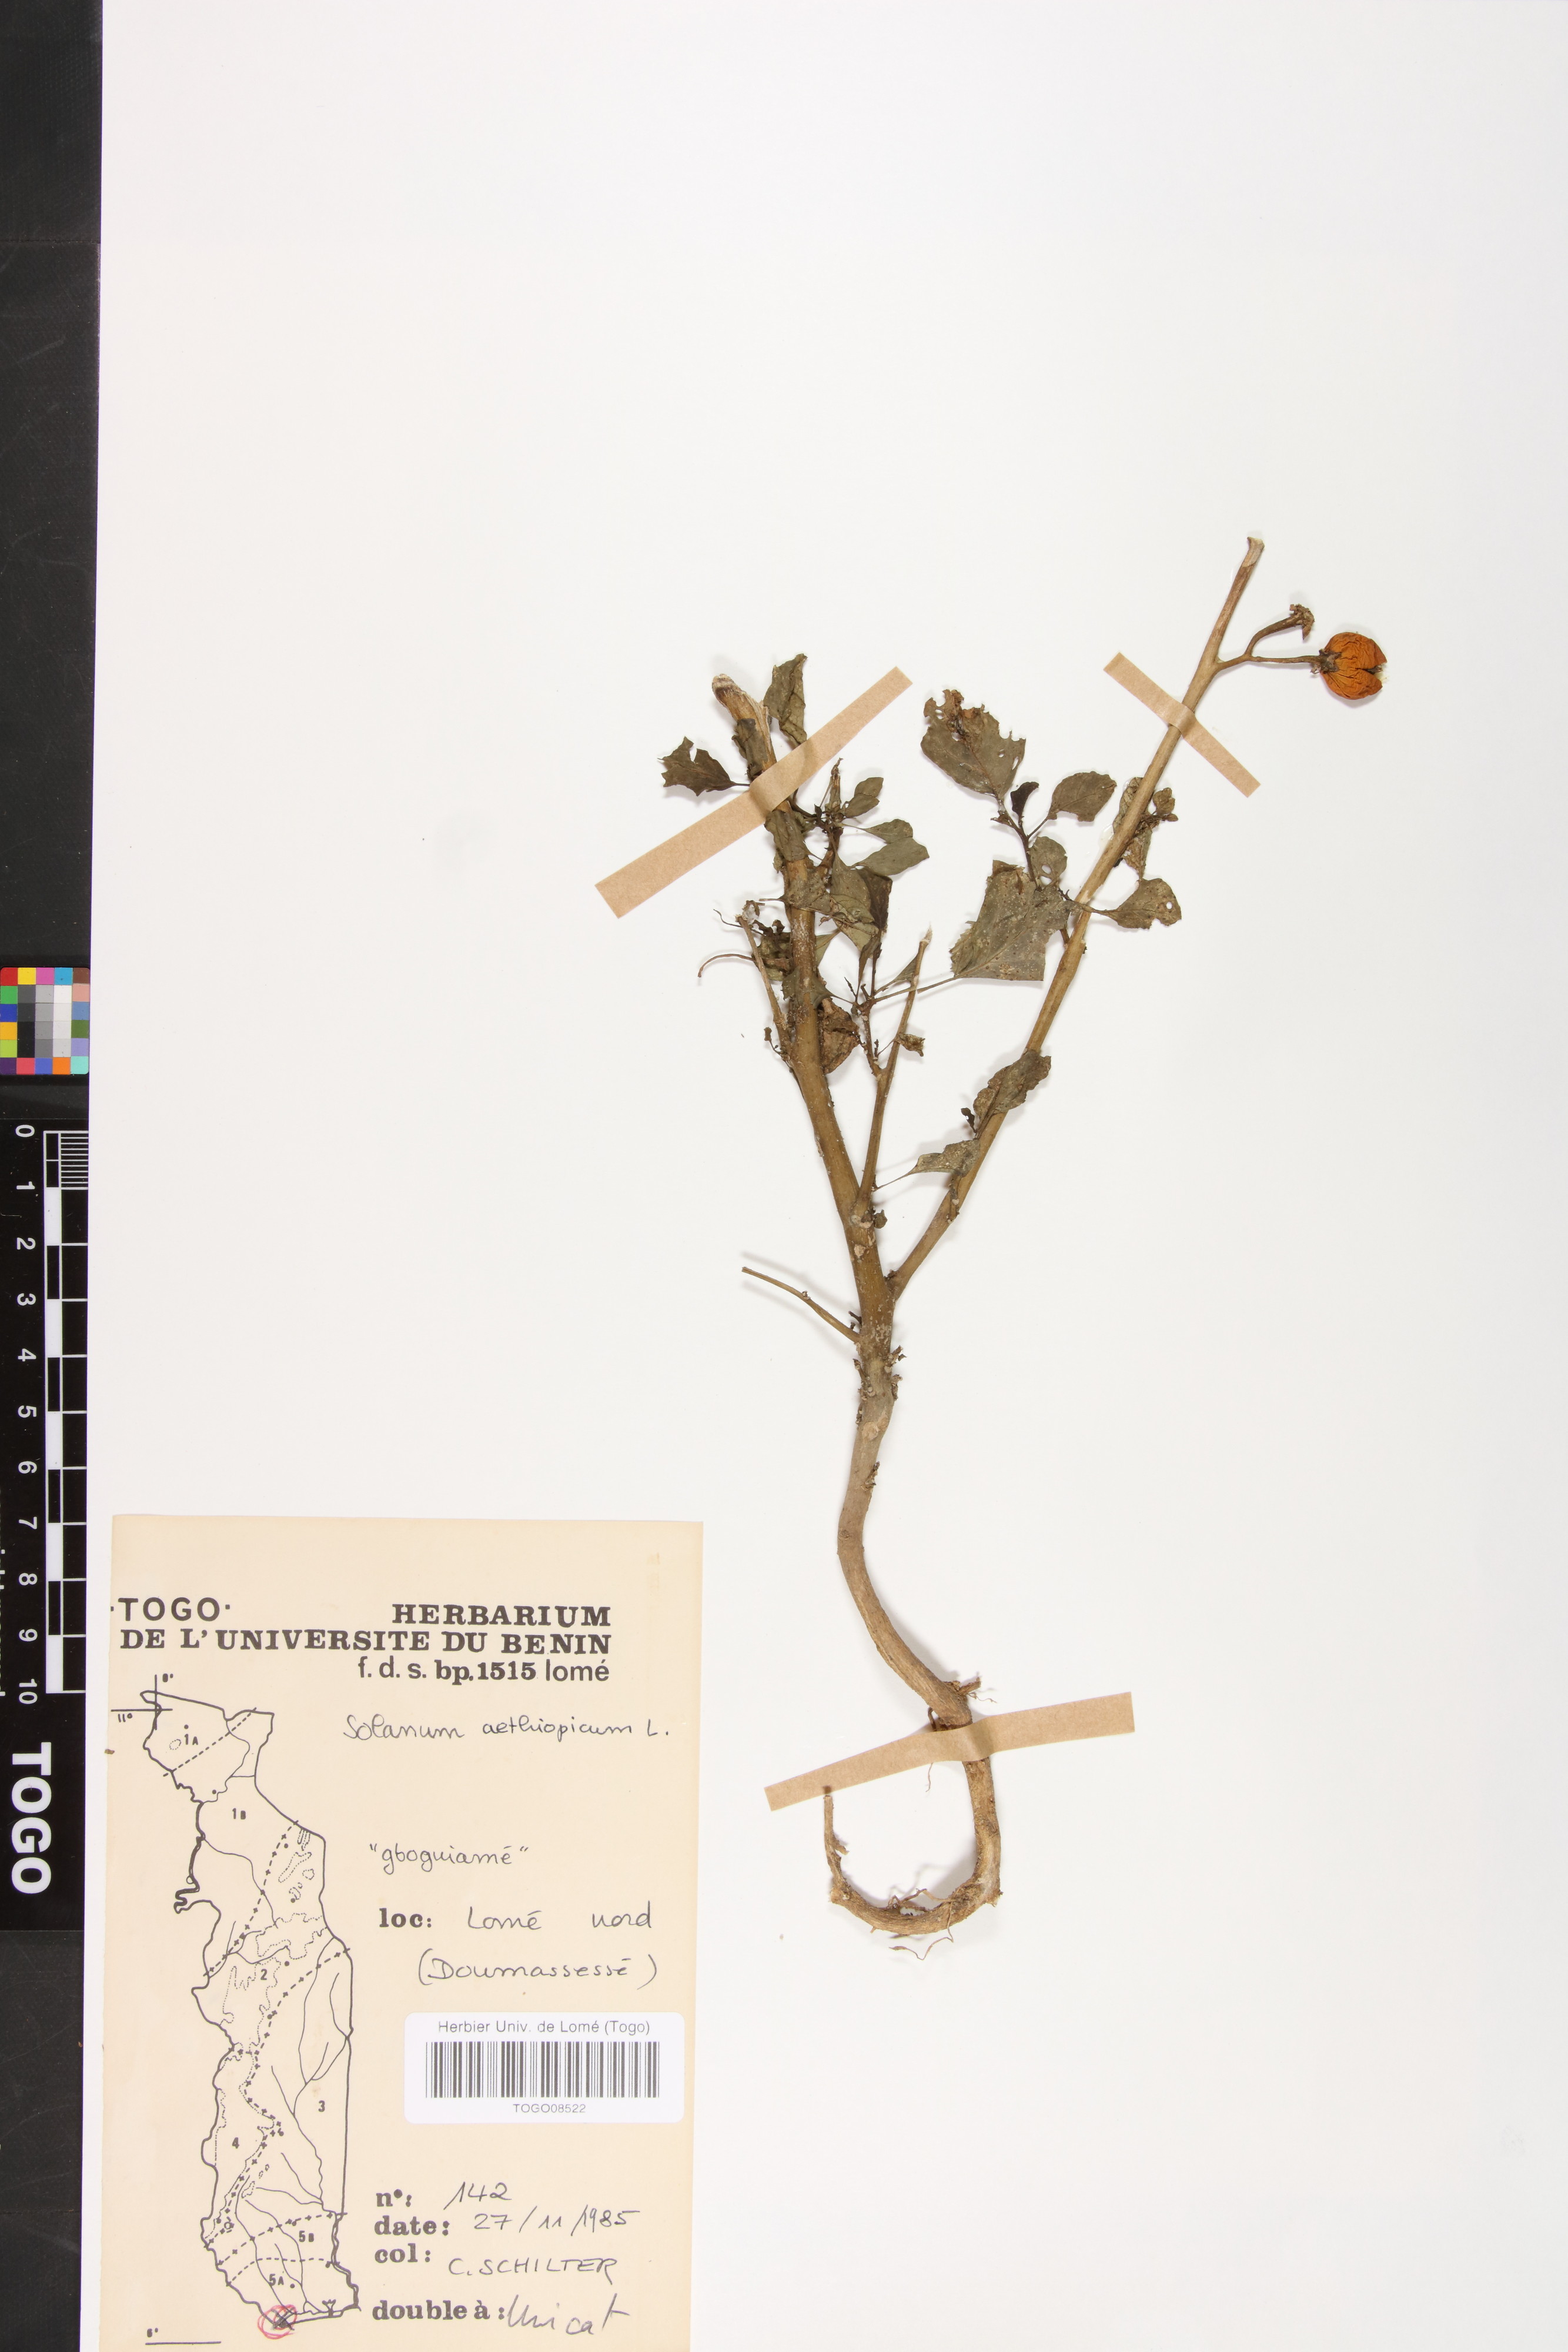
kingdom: Plantae
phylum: Tracheophyta
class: Magnoliopsida
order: Solanales
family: Solanaceae
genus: Solanum
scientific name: Solanum aethiopicum
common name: Gilo
